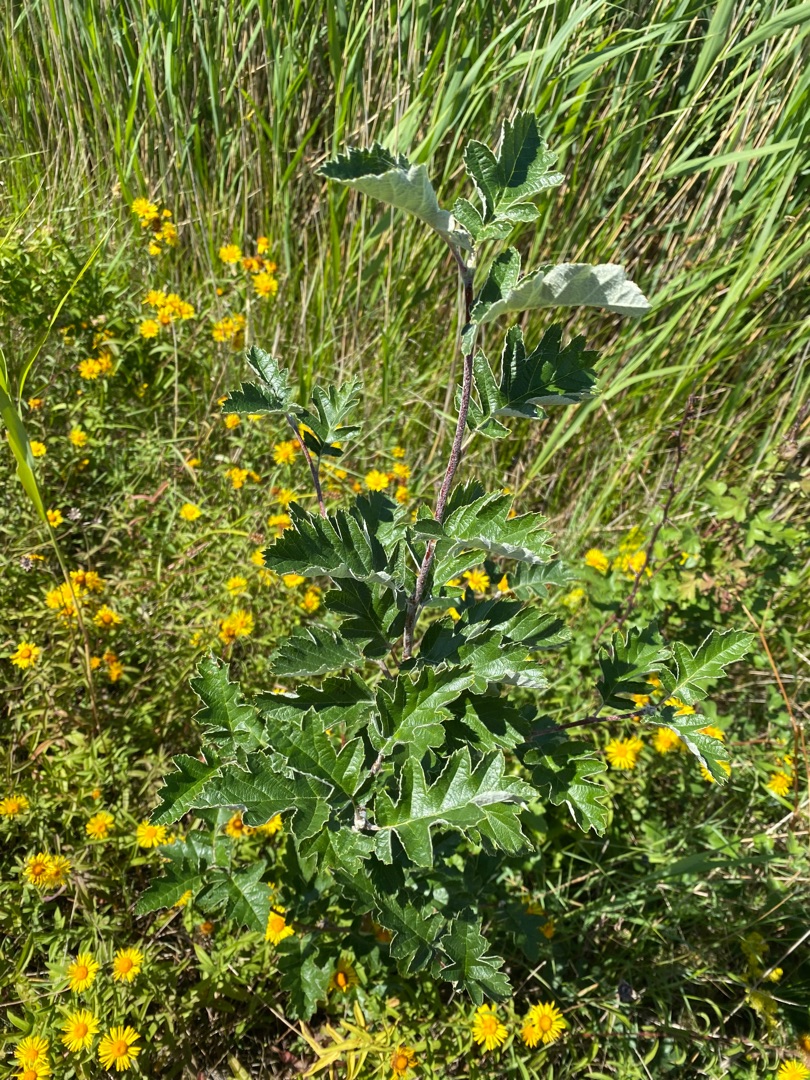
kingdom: Plantae
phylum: Tracheophyta
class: Magnoliopsida
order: Rosales
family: Rosaceae
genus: Scandosorbus
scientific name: Scandosorbus intermedia
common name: Selje-røn
